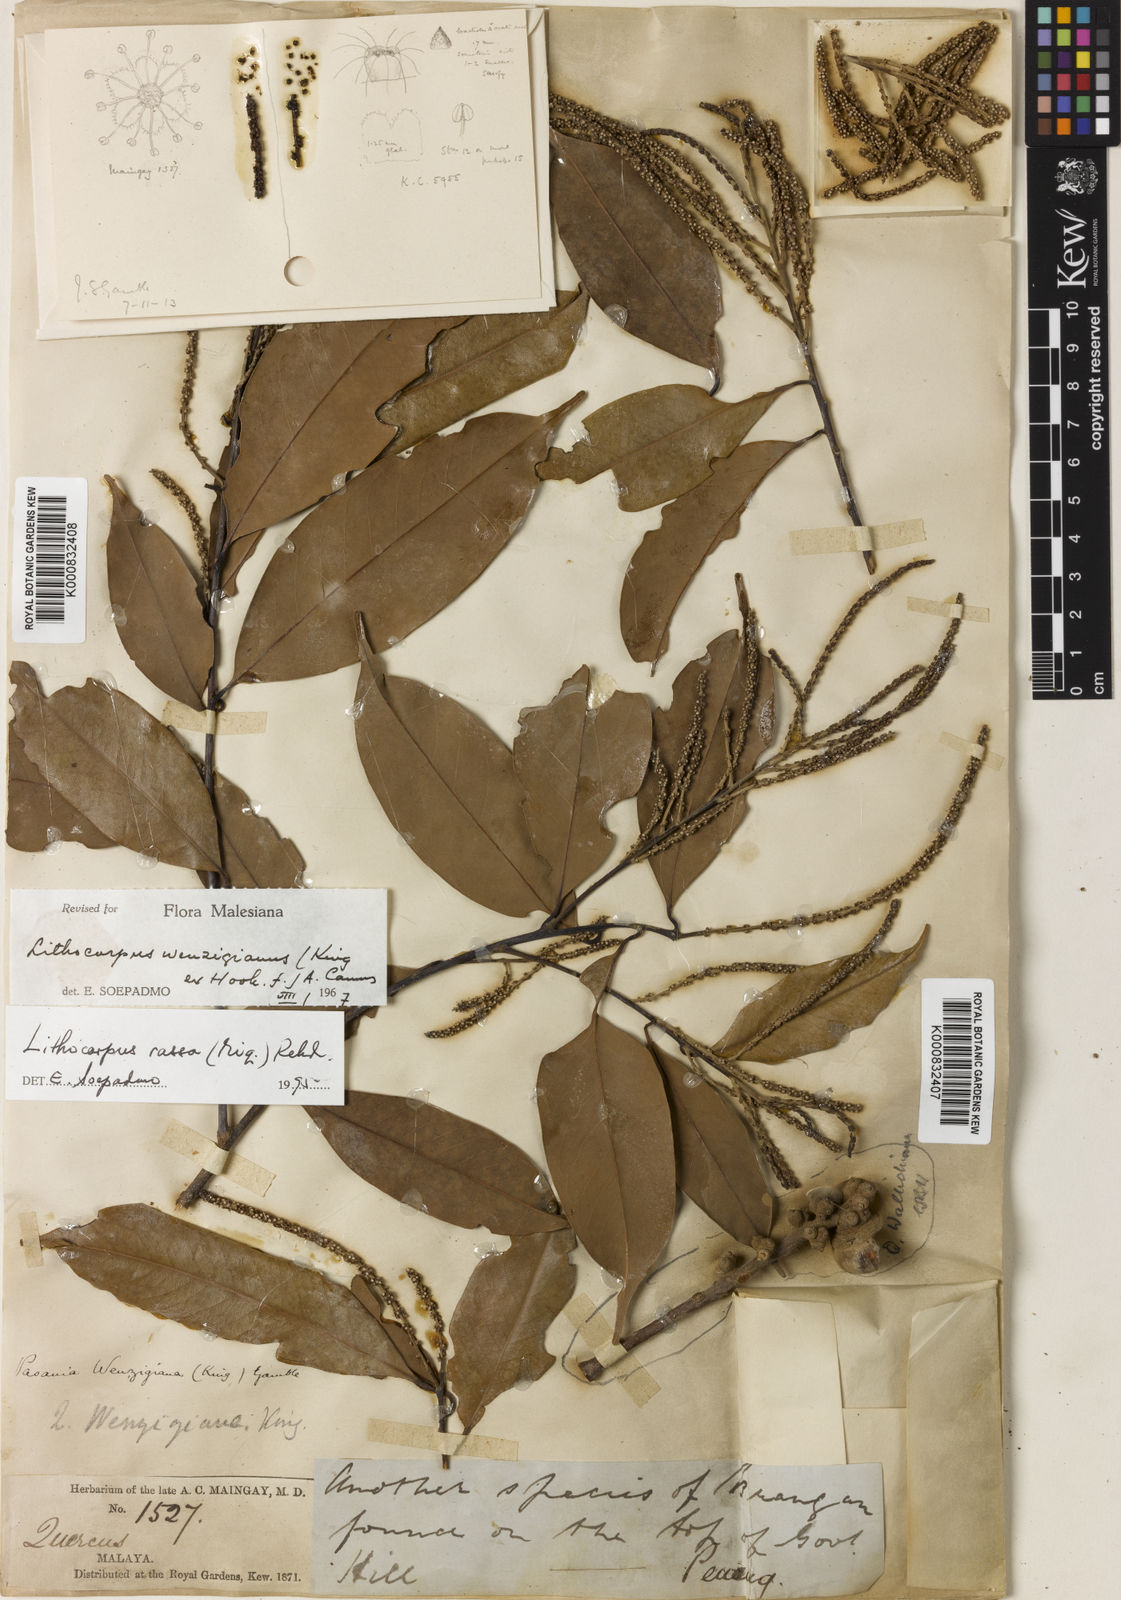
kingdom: Plantae
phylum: Tracheophyta
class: Magnoliopsida
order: Fagales
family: Fagaceae
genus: Lithocarpus
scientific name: Lithocarpus rassa
